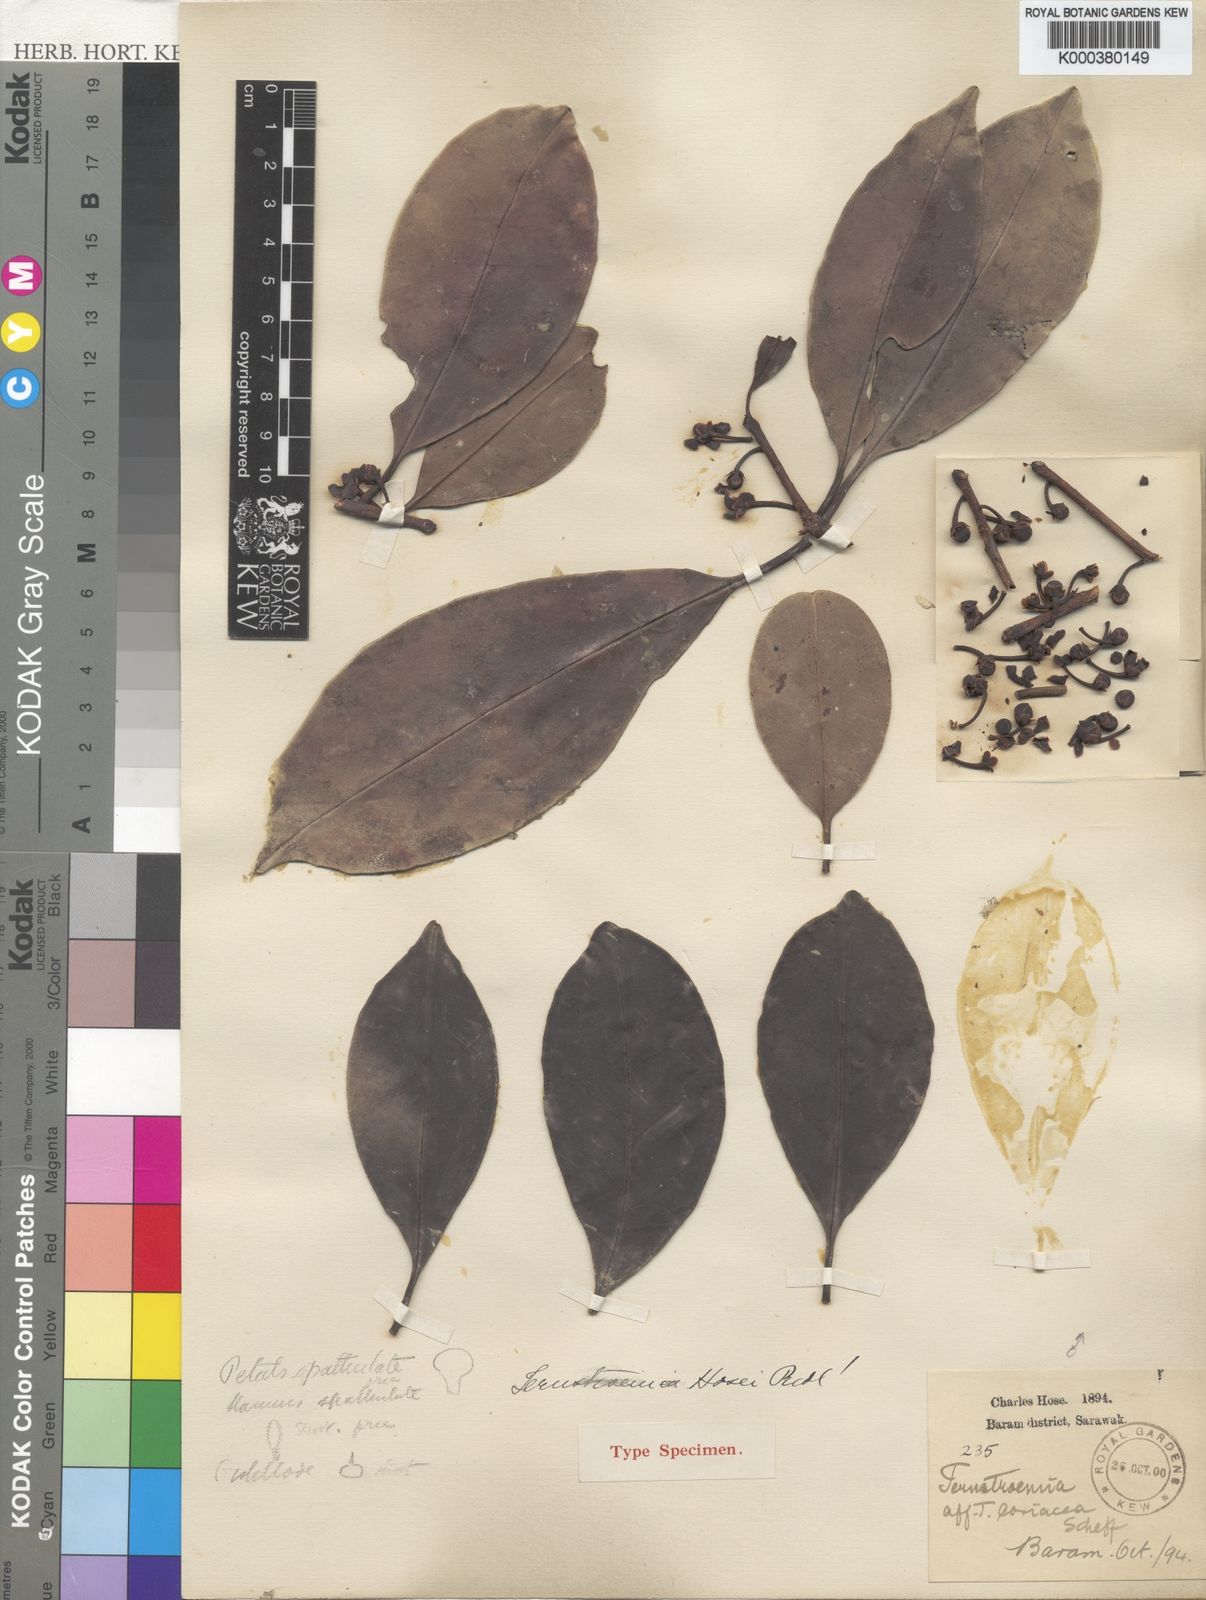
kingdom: Plantae
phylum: Tracheophyta
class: Magnoliopsida
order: Ericales
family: Pentaphylacaceae
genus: Ternstroemia
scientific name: Ternstroemia hosei
